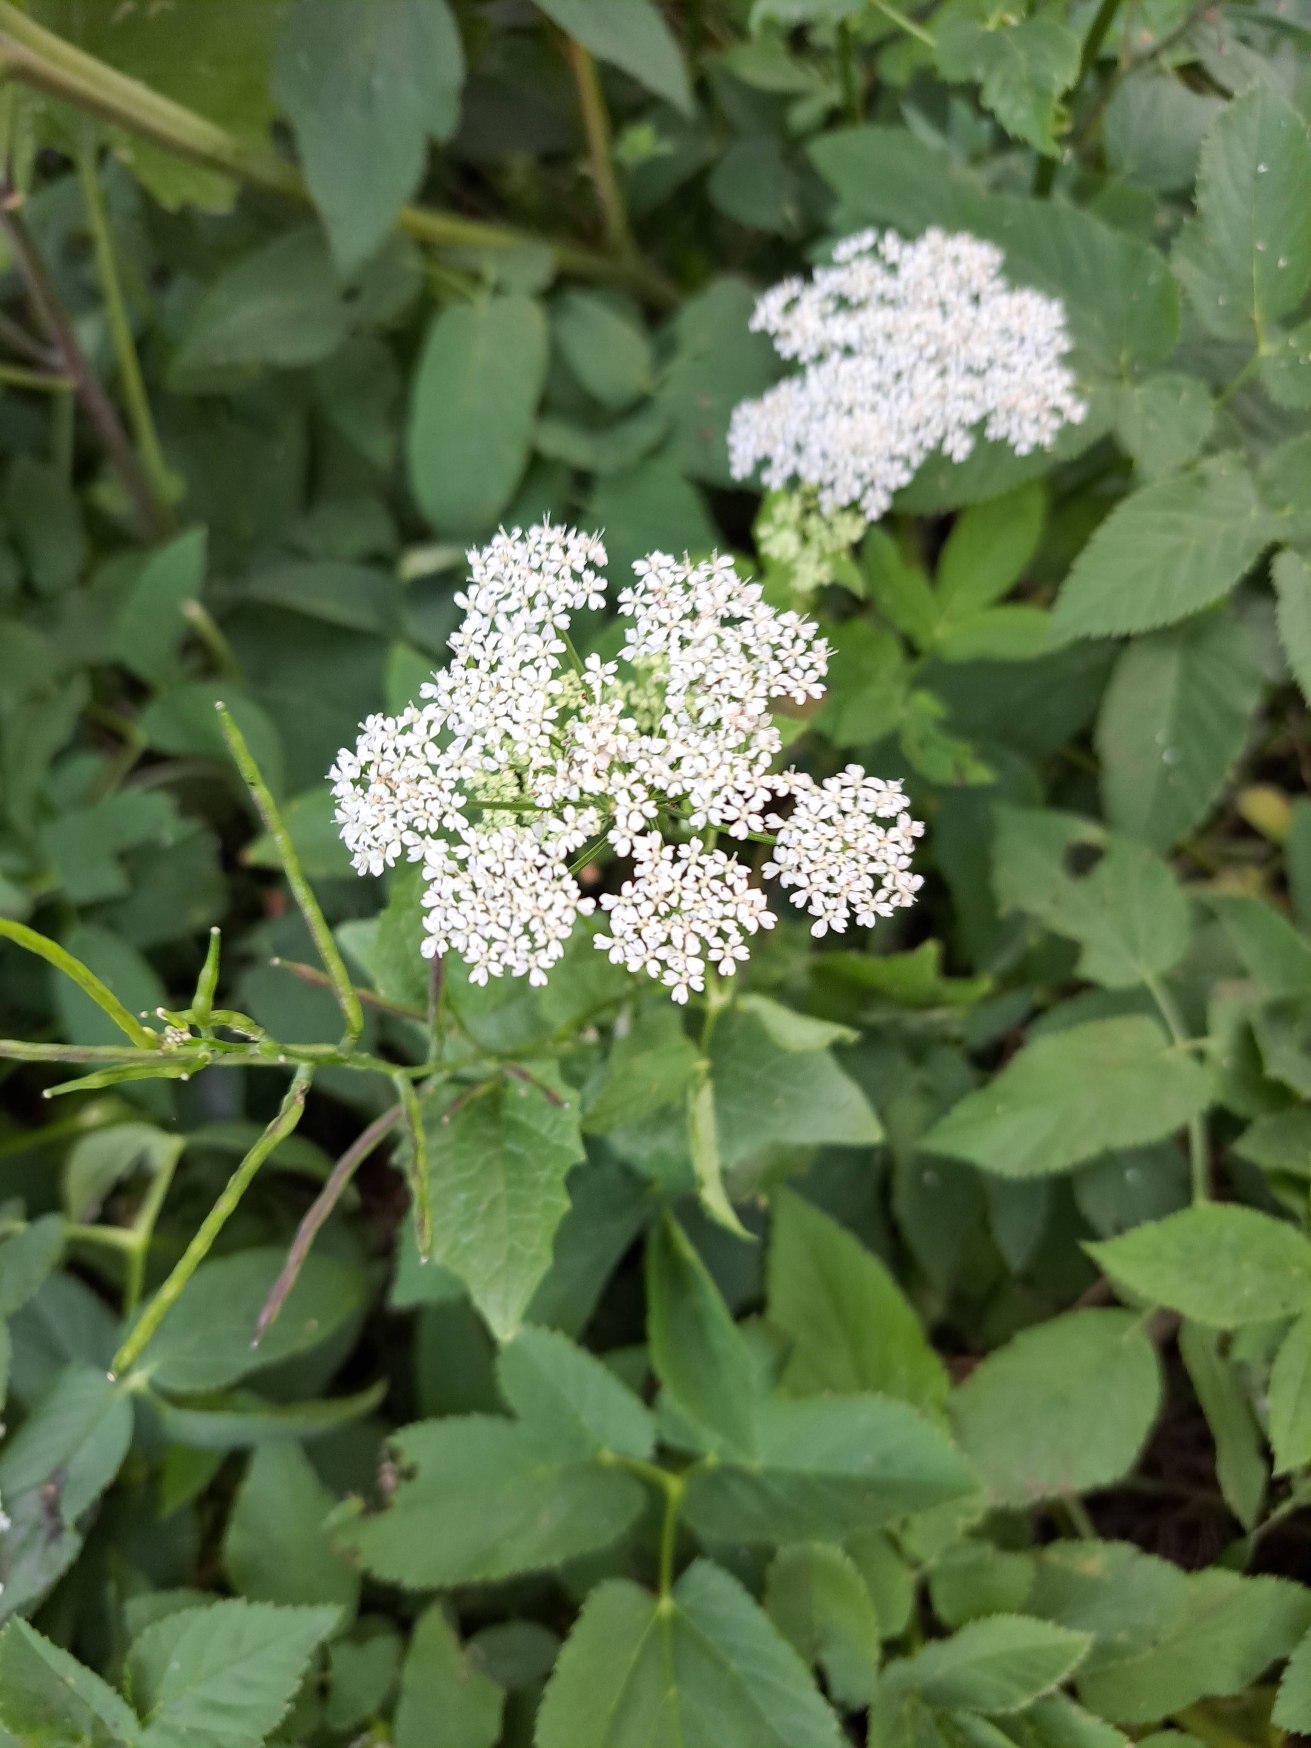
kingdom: Plantae
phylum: Tracheophyta
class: Magnoliopsida
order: Apiales
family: Apiaceae
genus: Aegopodium
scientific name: Aegopodium podagraria
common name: Skvalderkål
